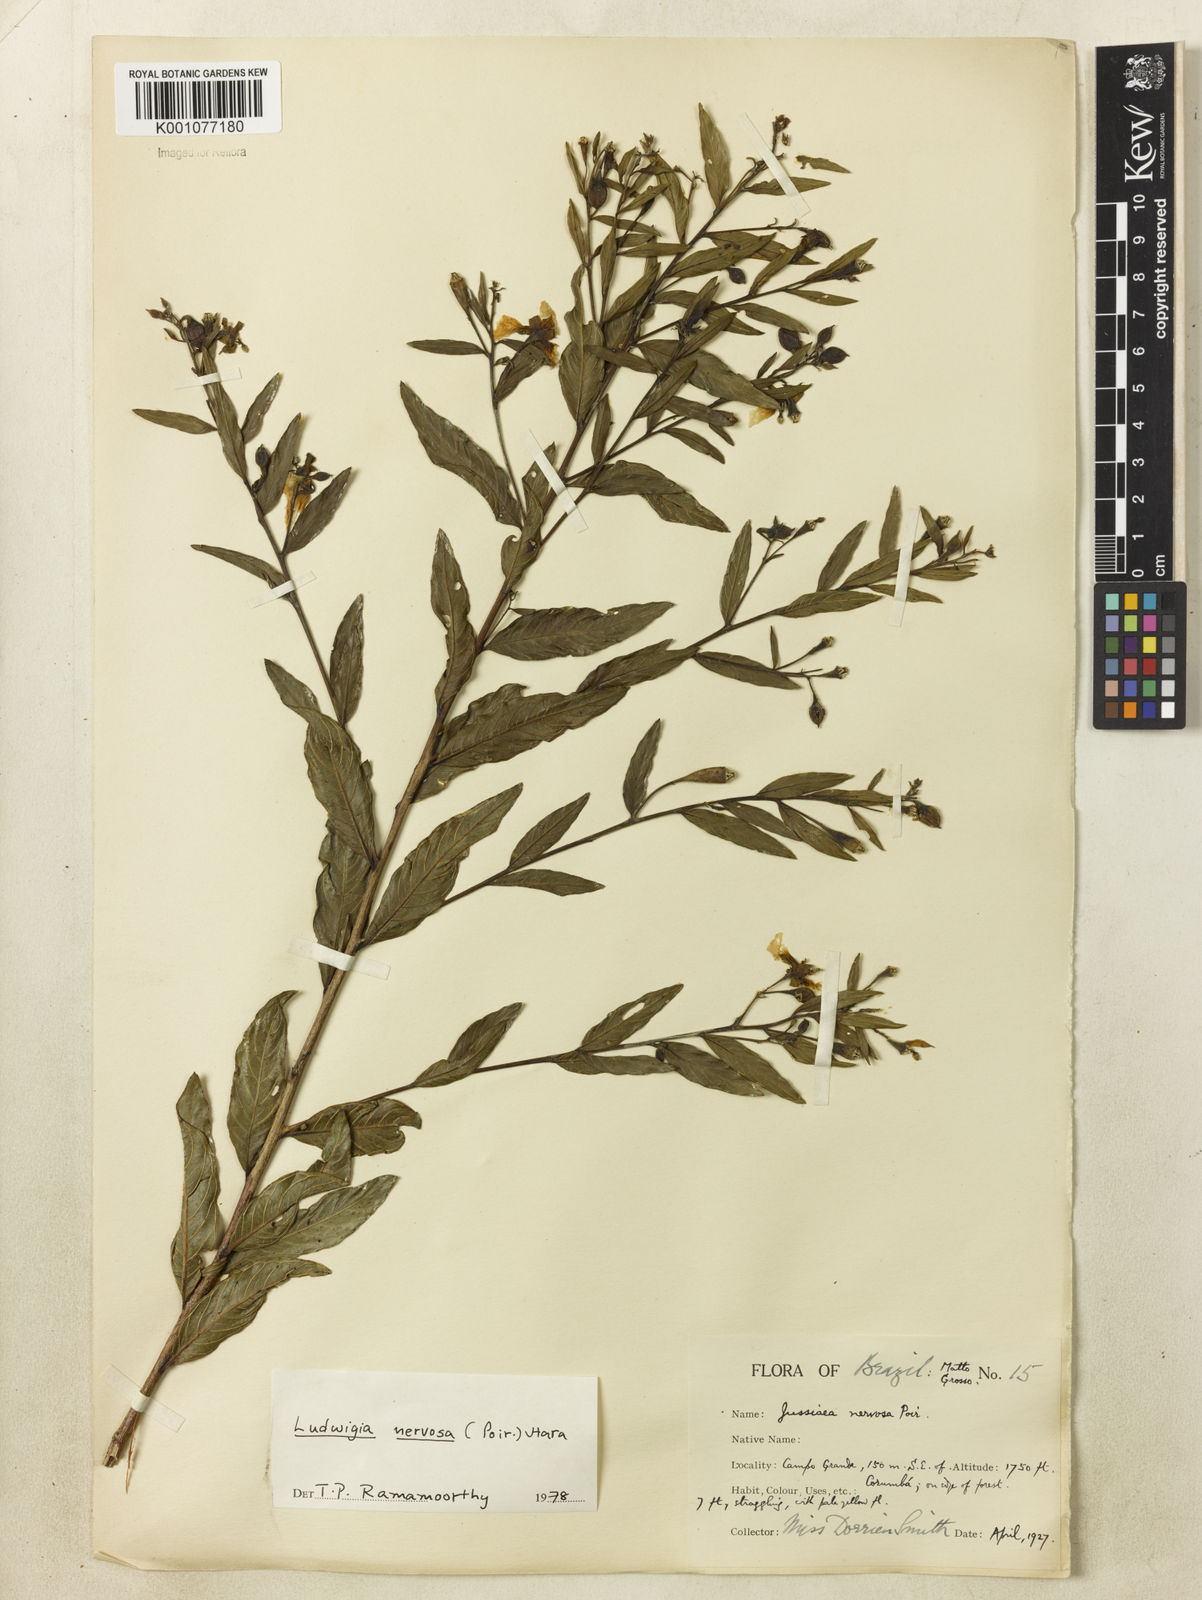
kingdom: Plantae
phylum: Tracheophyta
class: Magnoliopsida
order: Myrtales
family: Onagraceae
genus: Ludwigia
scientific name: Ludwigia nervosa
